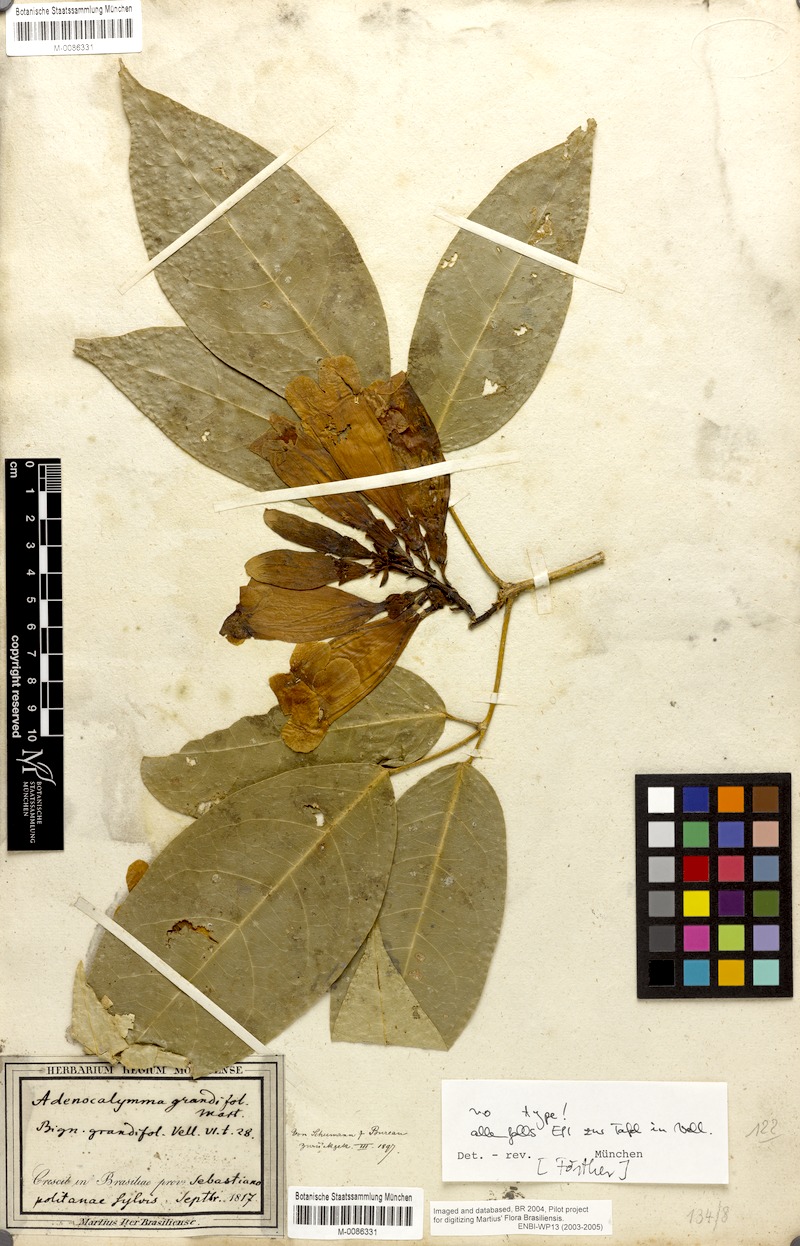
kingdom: Plantae
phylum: Tracheophyta
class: Magnoliopsida
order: Lamiales
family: Bignoniaceae
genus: Adenocalymma
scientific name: Adenocalymma ternatum
